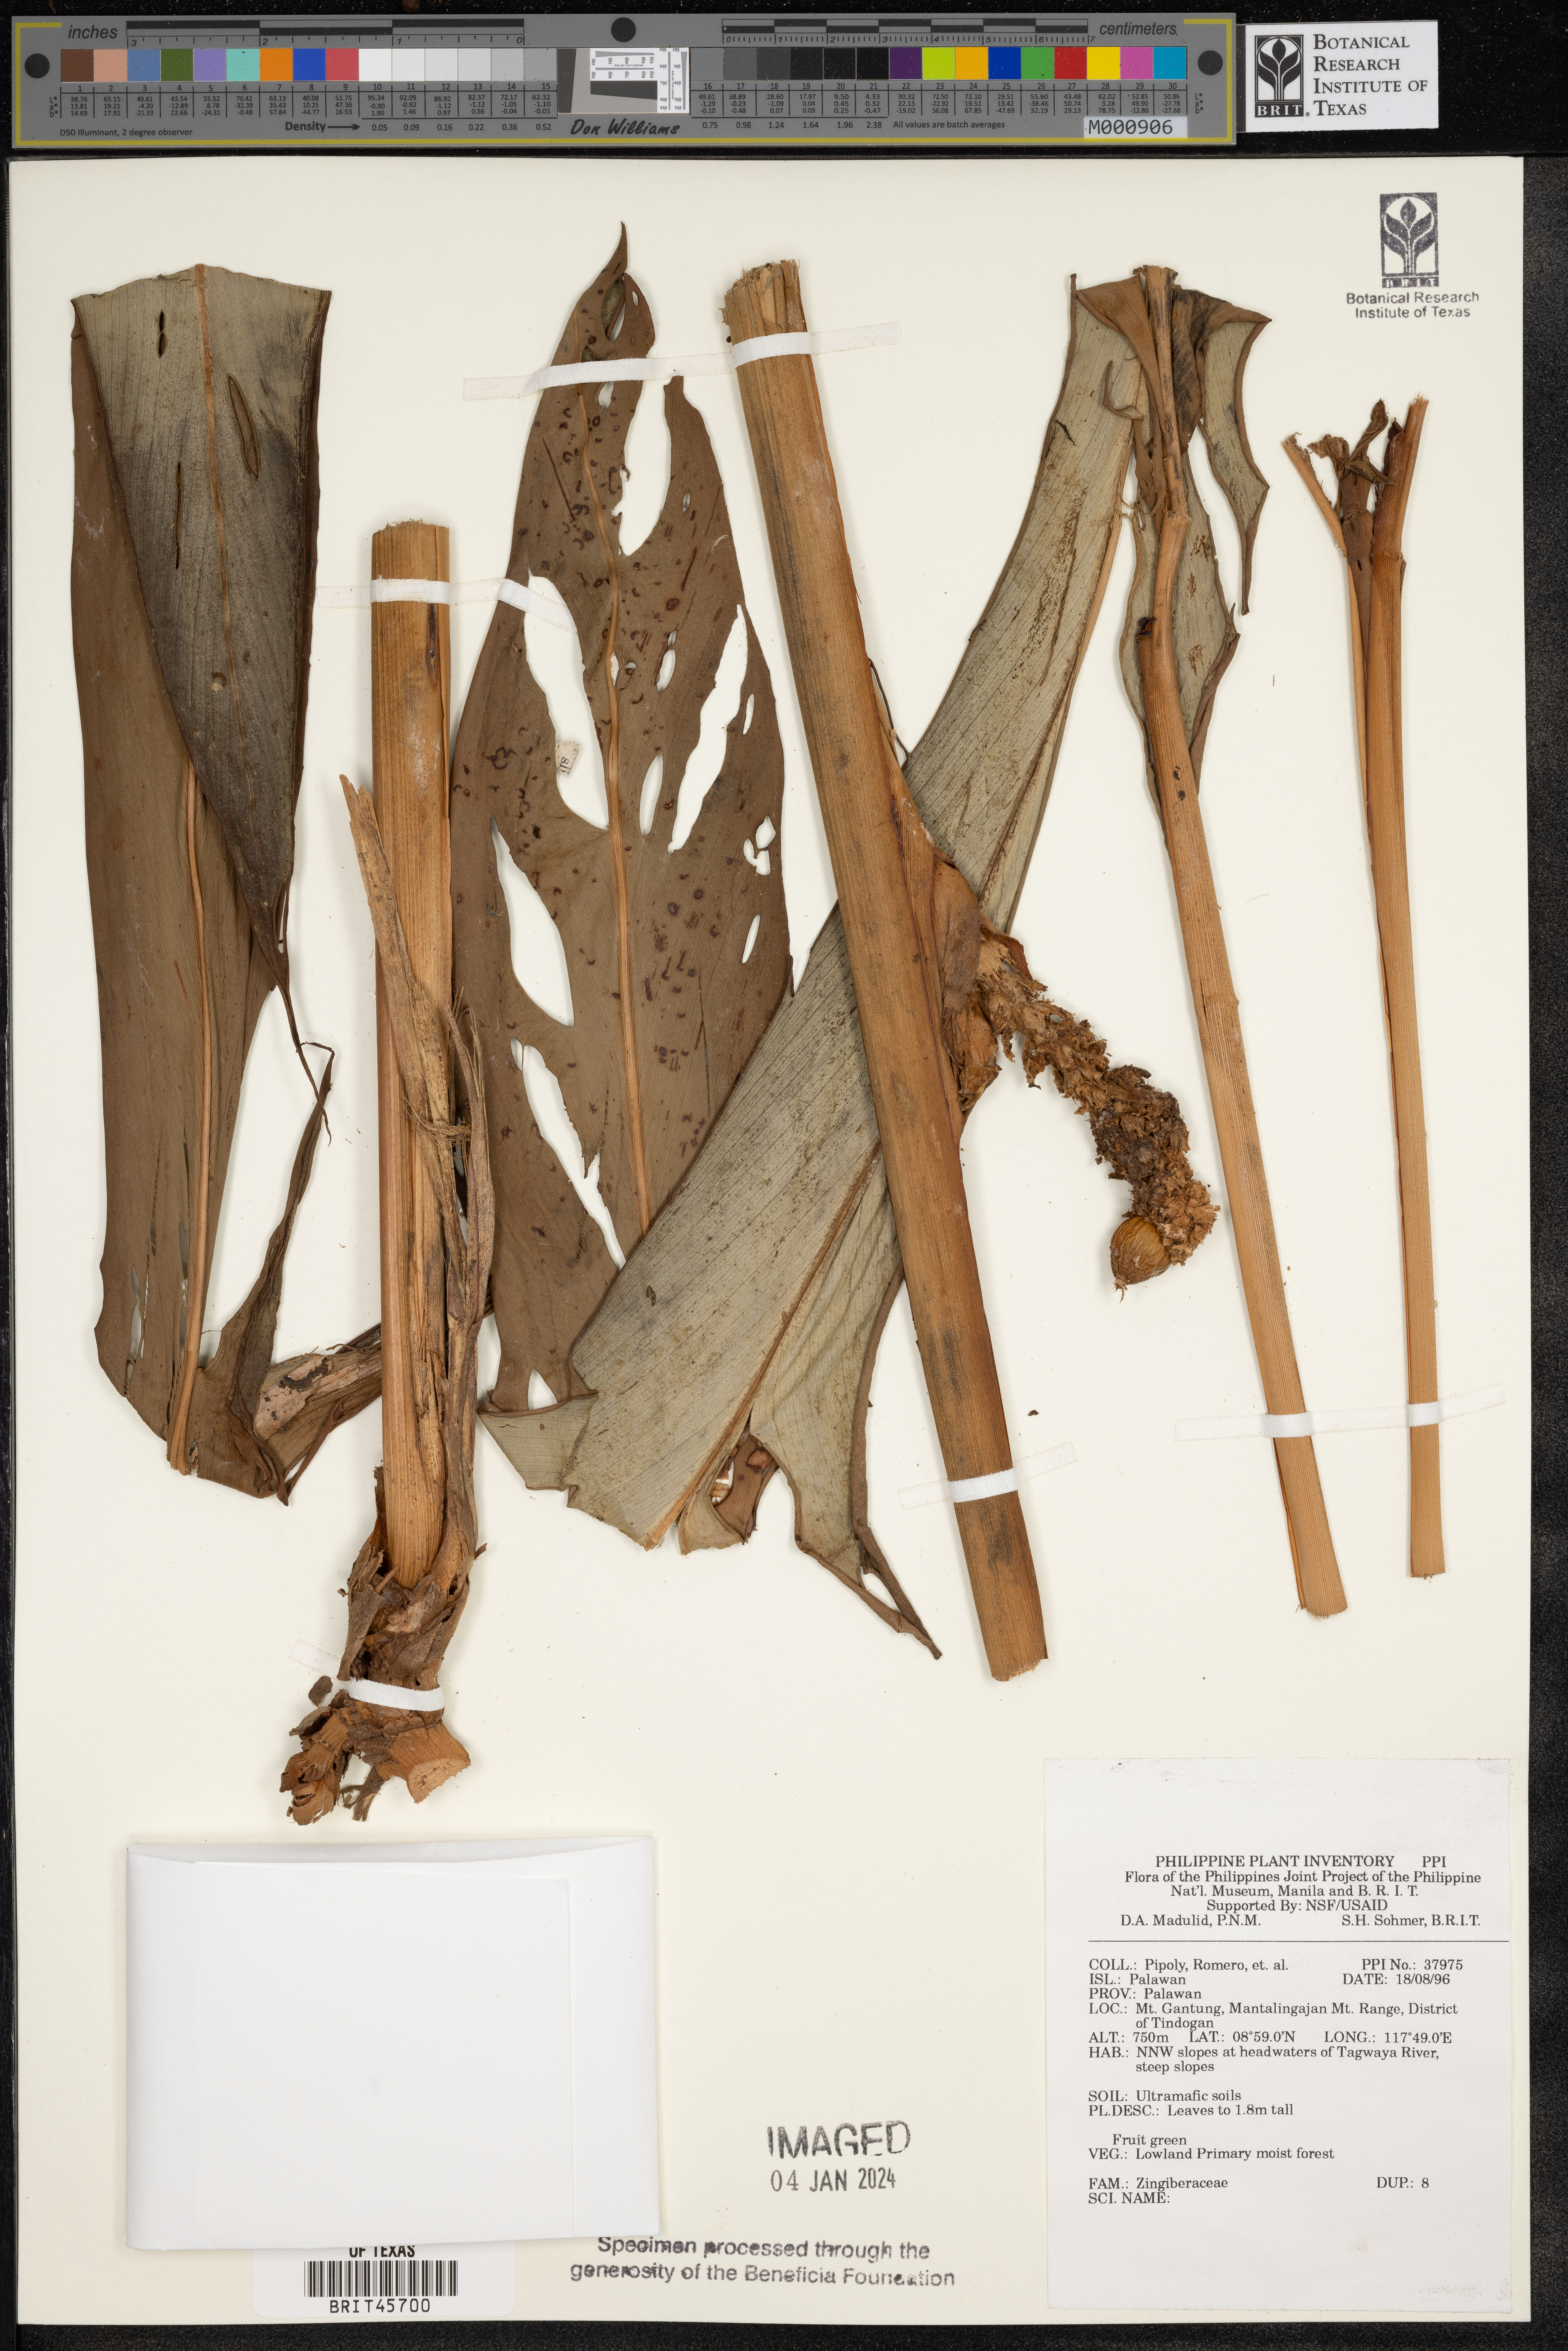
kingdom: Plantae
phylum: Tracheophyta
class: Liliopsida
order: Zingiberales
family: Zingiberaceae
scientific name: Zingiberaceae
